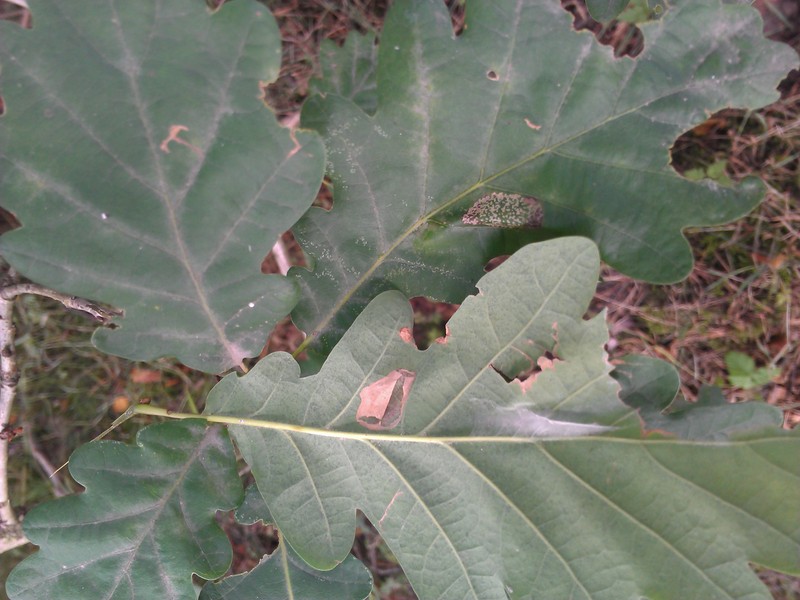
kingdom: Animalia
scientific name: Animalia
